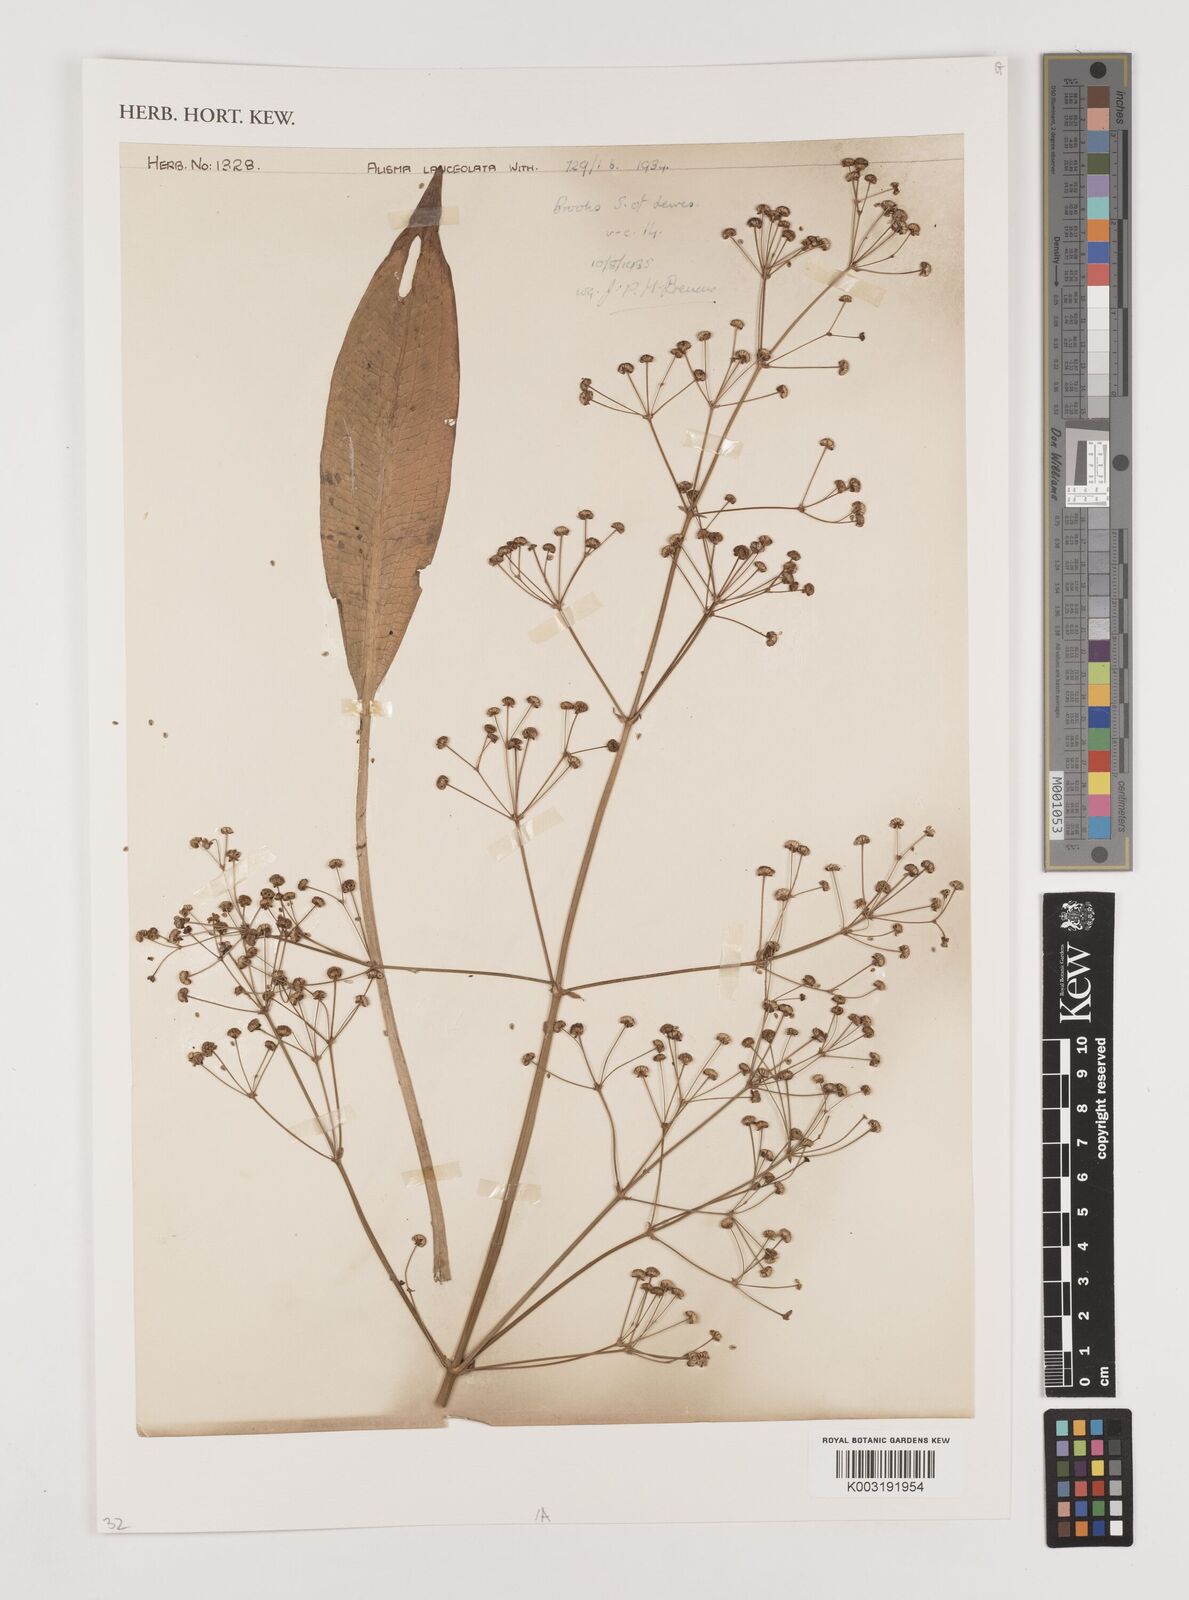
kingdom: Plantae
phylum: Tracheophyta
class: Liliopsida
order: Alismatales
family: Alismataceae
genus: Alisma
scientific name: Alisma lanceolatum
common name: Narrow-leaved water-plantain
